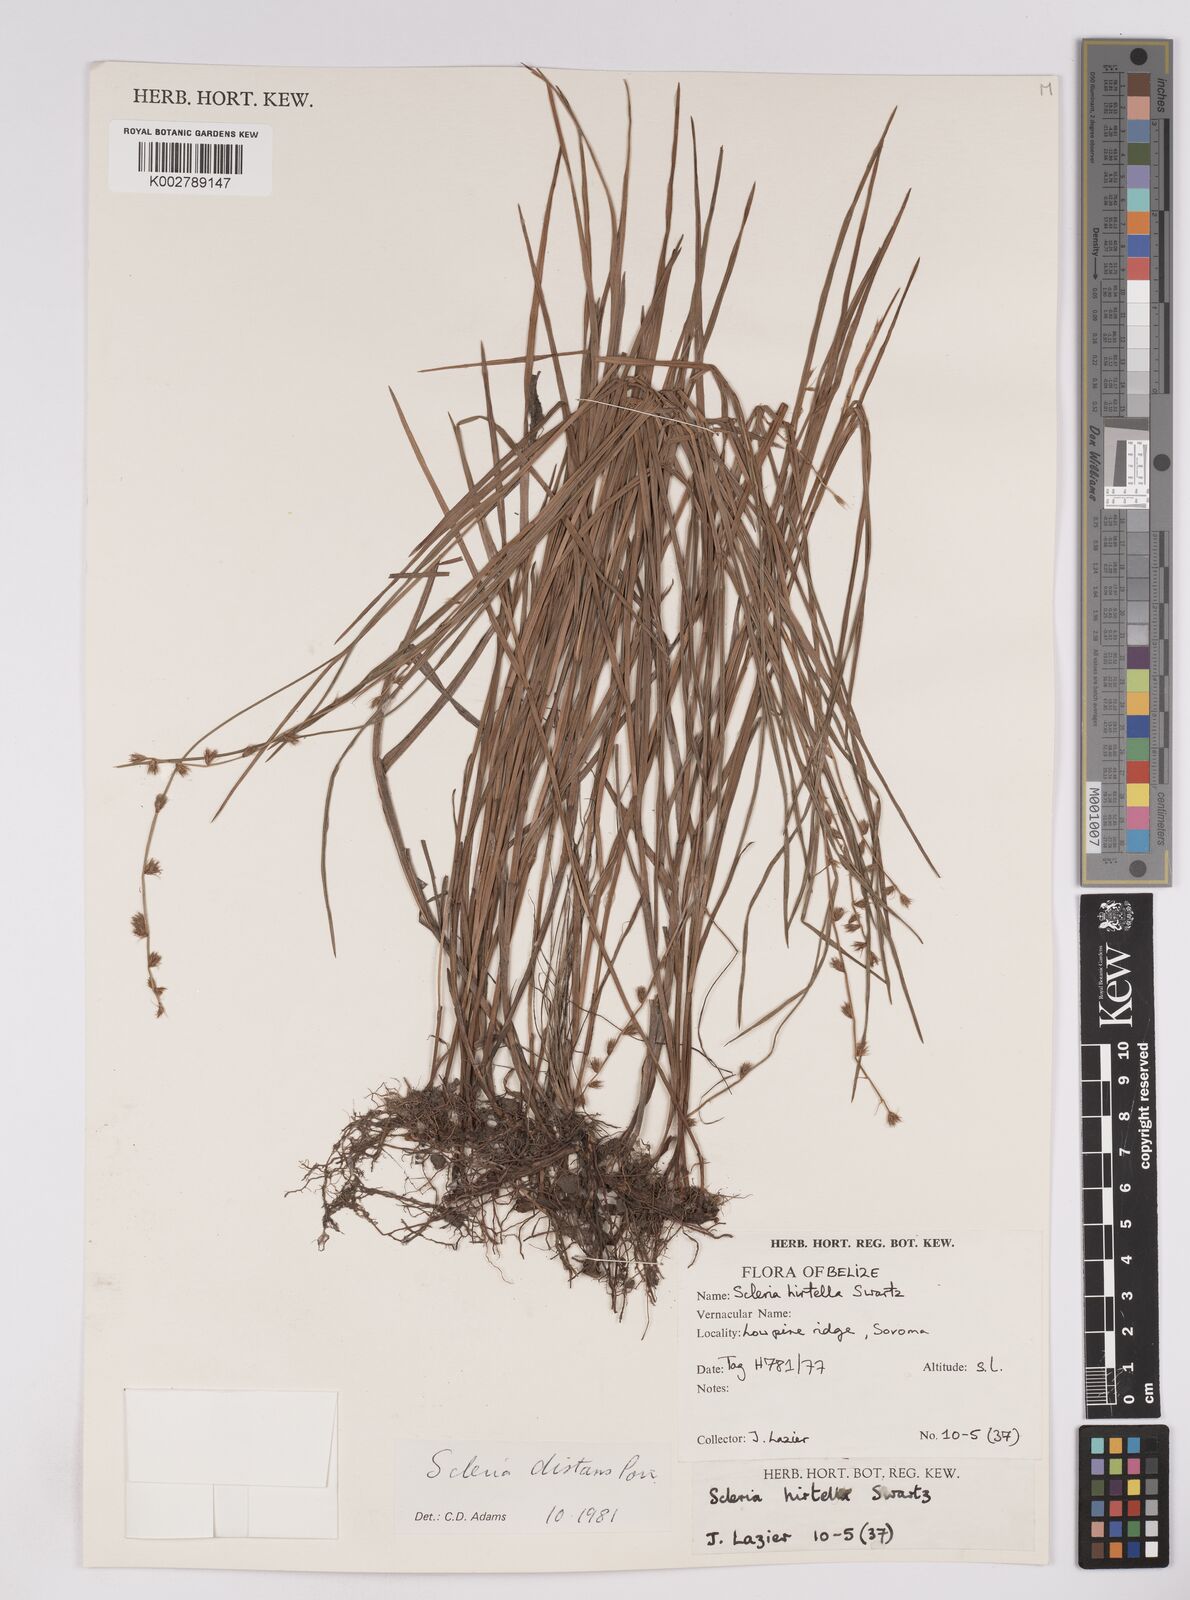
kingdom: Plantae
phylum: Tracheophyta
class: Liliopsida
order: Poales
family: Cyperaceae
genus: Scleria
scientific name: Scleria distans
